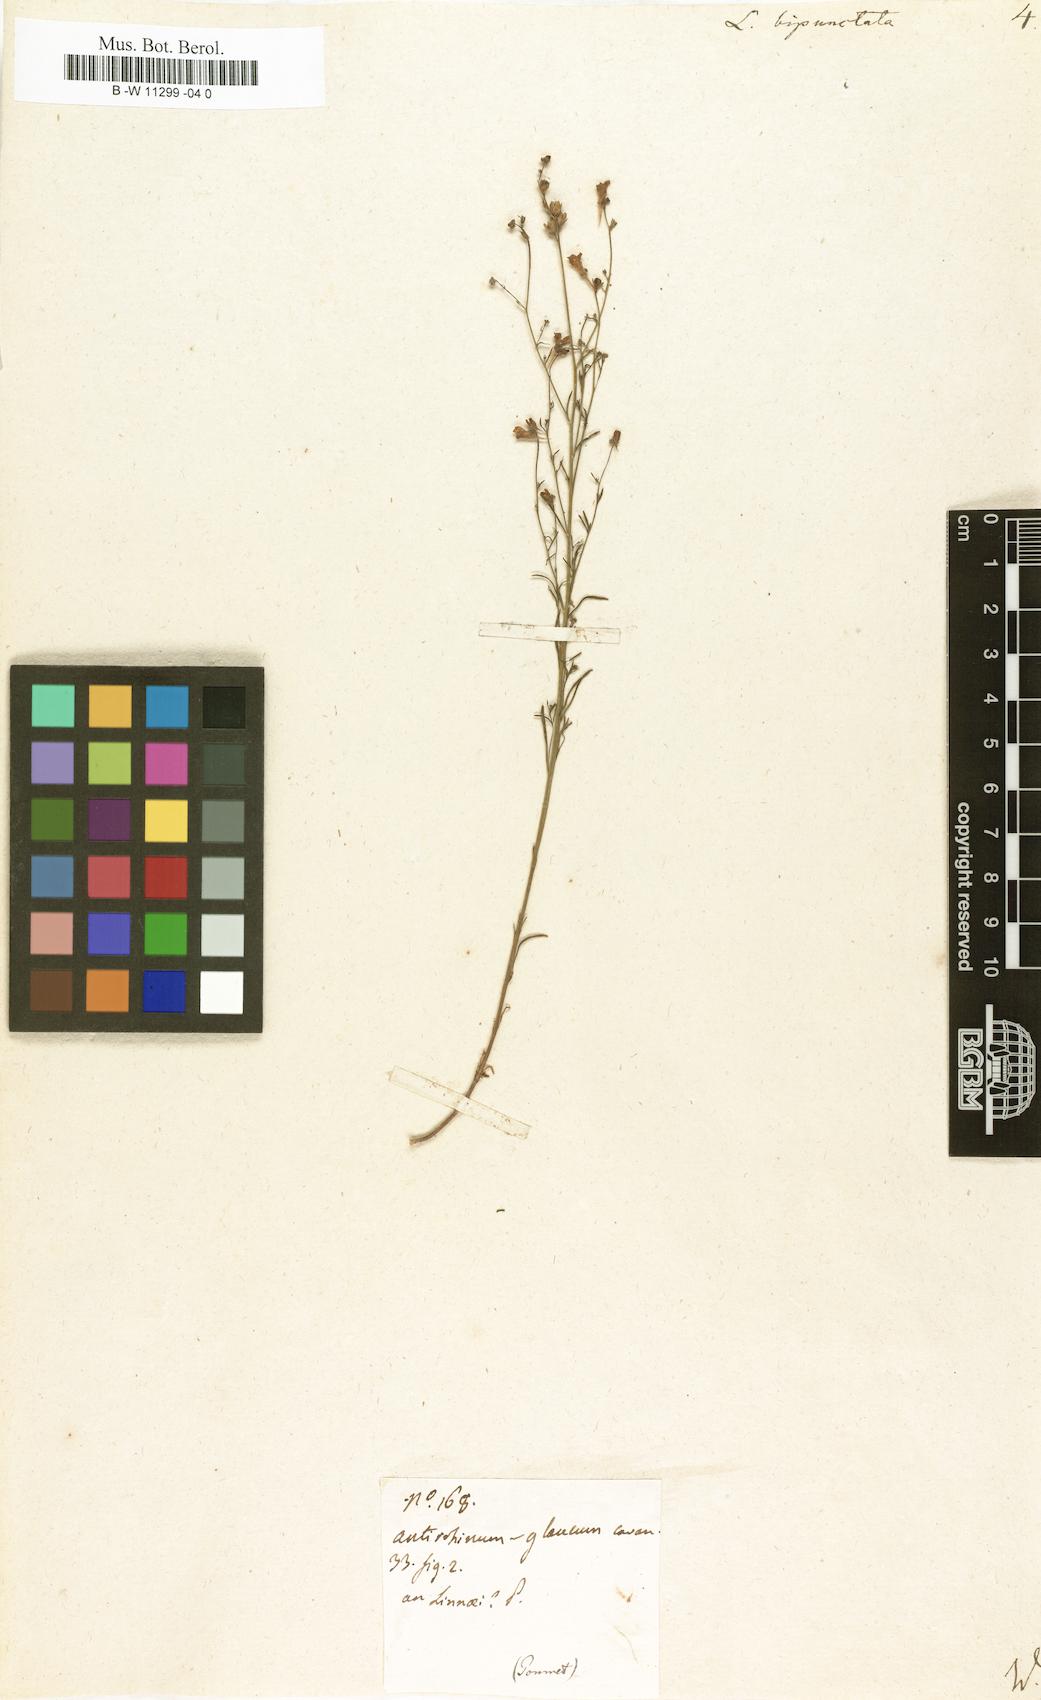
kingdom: Plantae
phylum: Tracheophyta
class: Magnoliopsida
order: Lamiales
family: Plantaginaceae
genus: Linaria
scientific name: Linaria bipunctata
